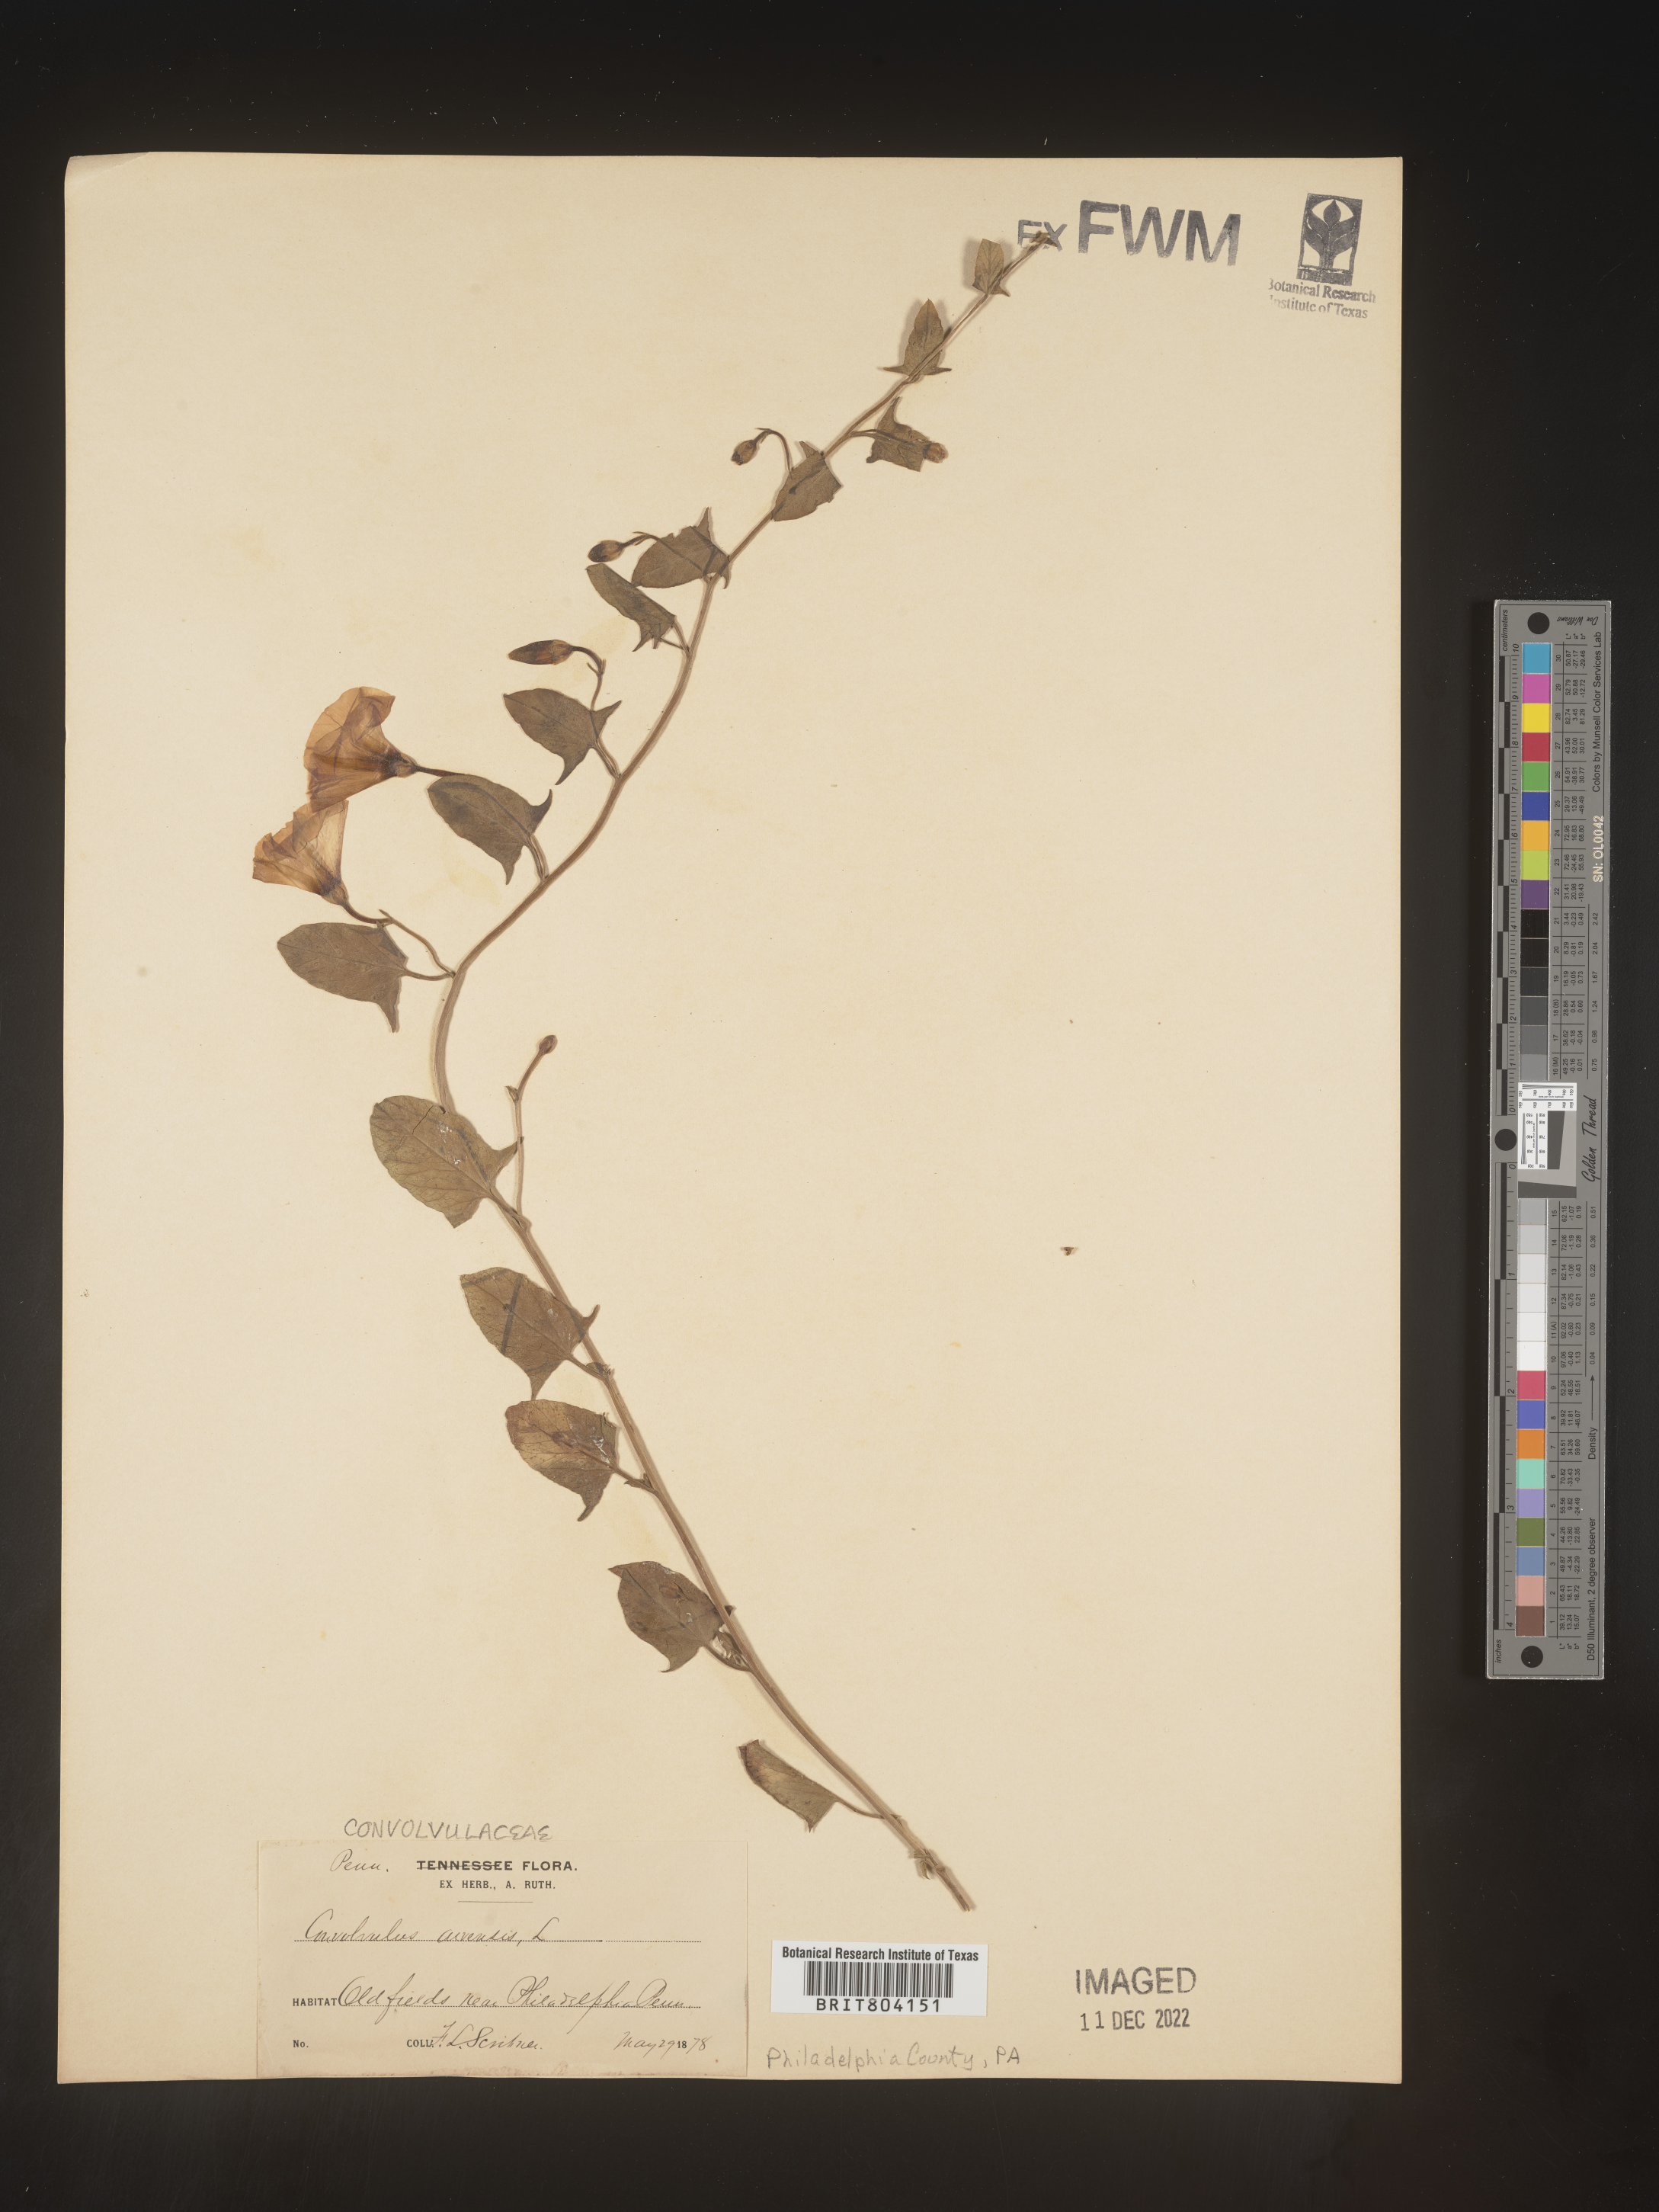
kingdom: Plantae
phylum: Tracheophyta
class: Magnoliopsida
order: Solanales
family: Convolvulaceae
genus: Convolvulus
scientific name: Convolvulus arvensis
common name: Field bindweed
